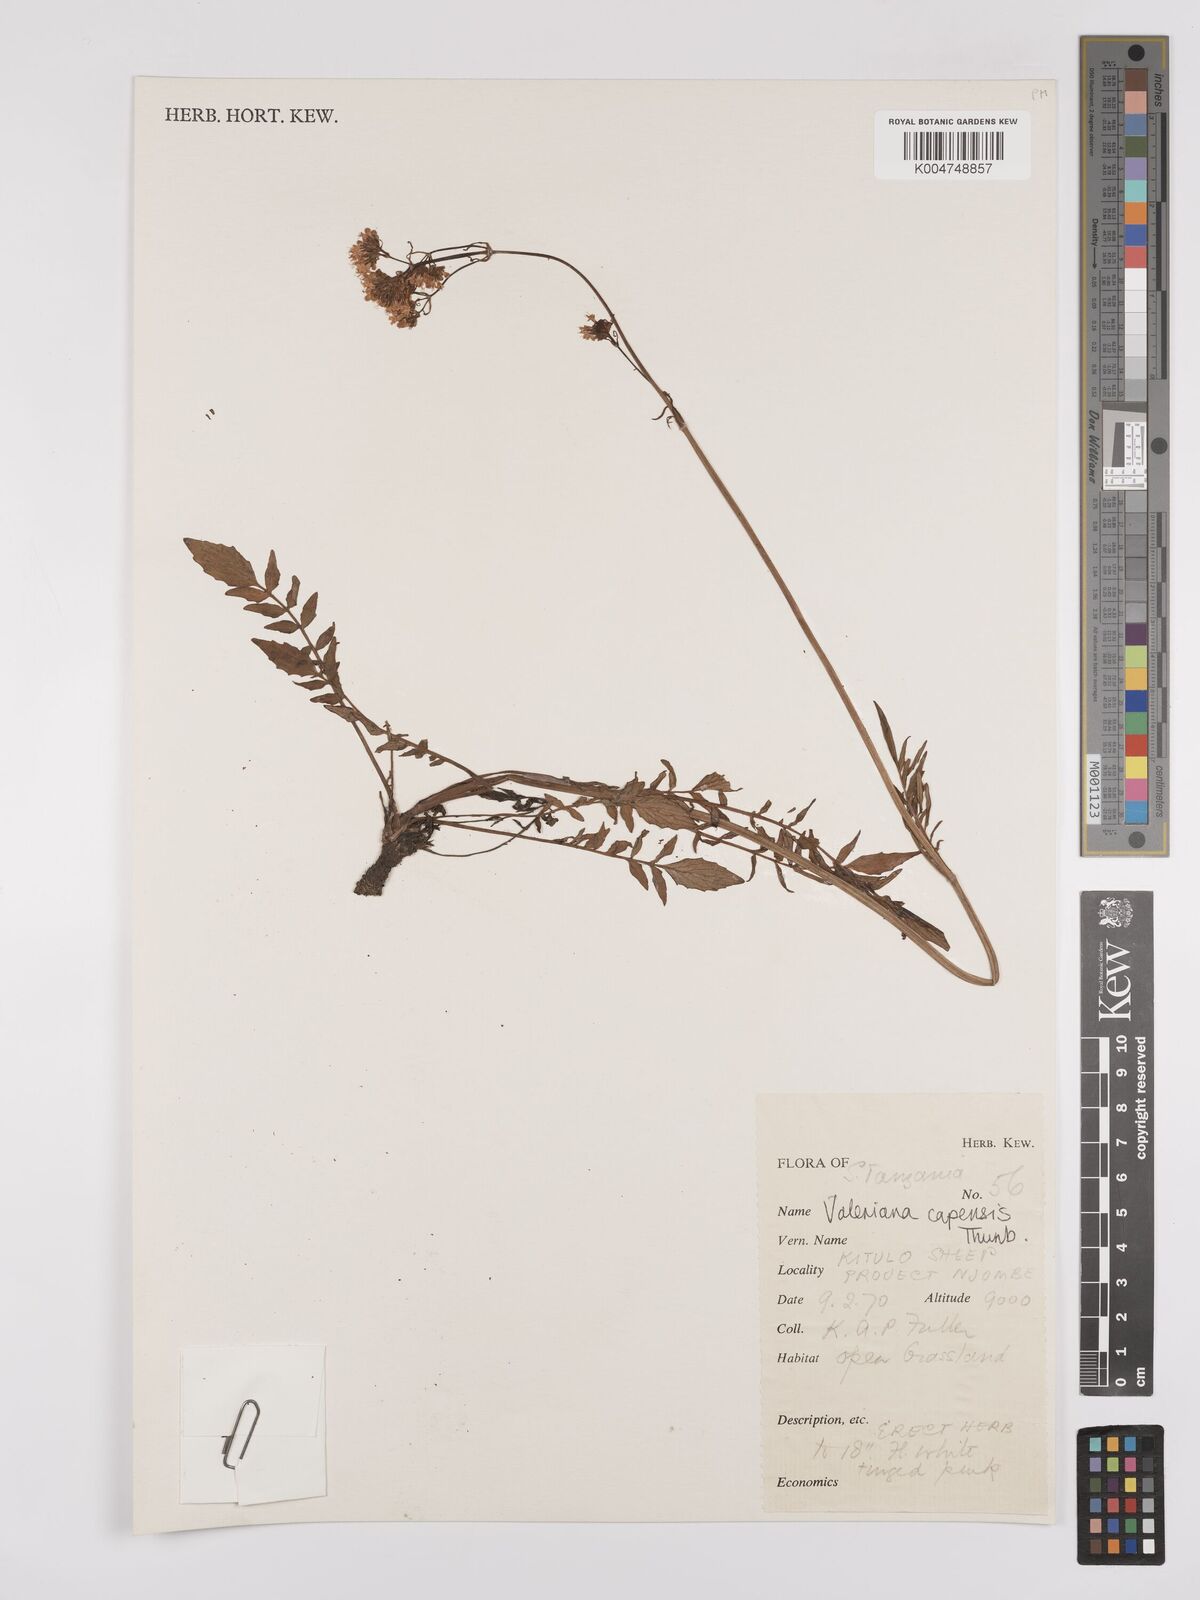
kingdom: Plantae
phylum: Tracheophyta
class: Magnoliopsida
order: Dipsacales
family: Caprifoliaceae
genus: Valeriana
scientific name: Valeriana capensis
